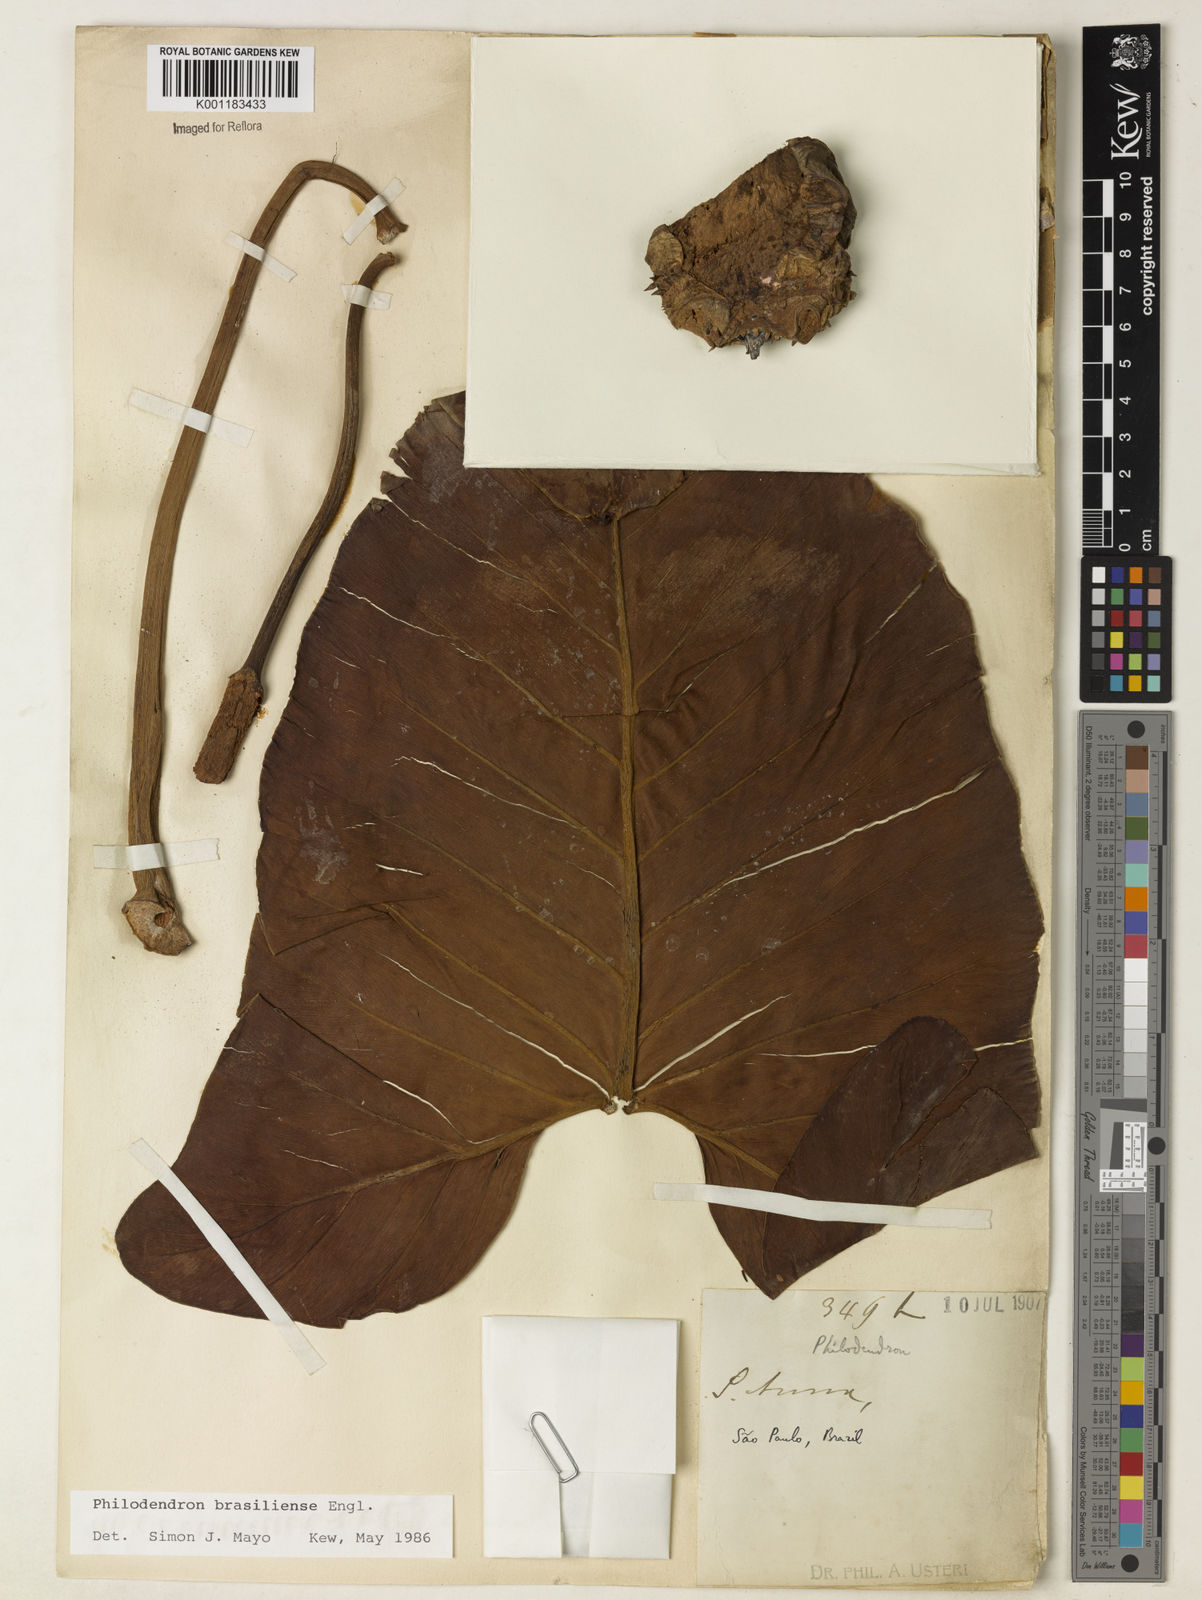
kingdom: Plantae
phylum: Tracheophyta
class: Liliopsida
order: Alismatales
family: Araceae
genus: Thaumatophyllum
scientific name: Thaumatophyllum brasiliense
